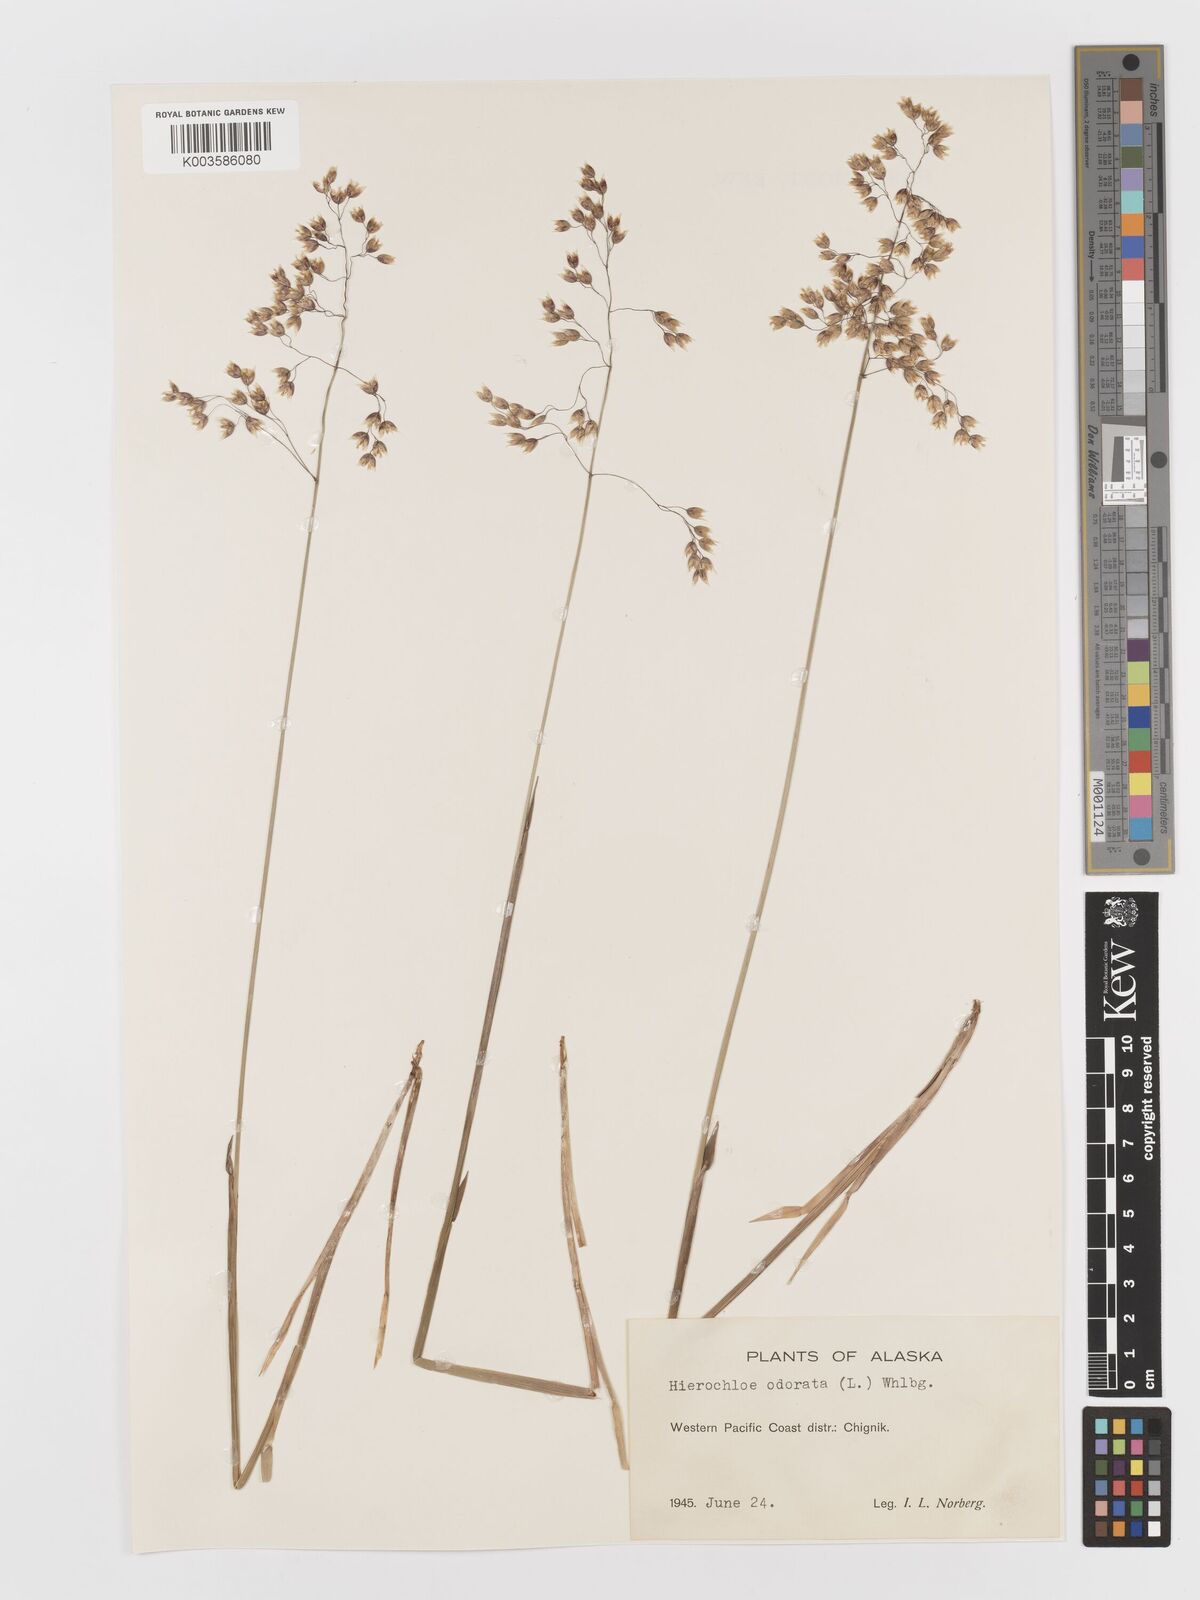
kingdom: Plantae
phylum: Tracheophyta
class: Liliopsida
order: Poales
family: Poaceae
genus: Anthoxanthum
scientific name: Anthoxanthum nitens
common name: Holy grass
